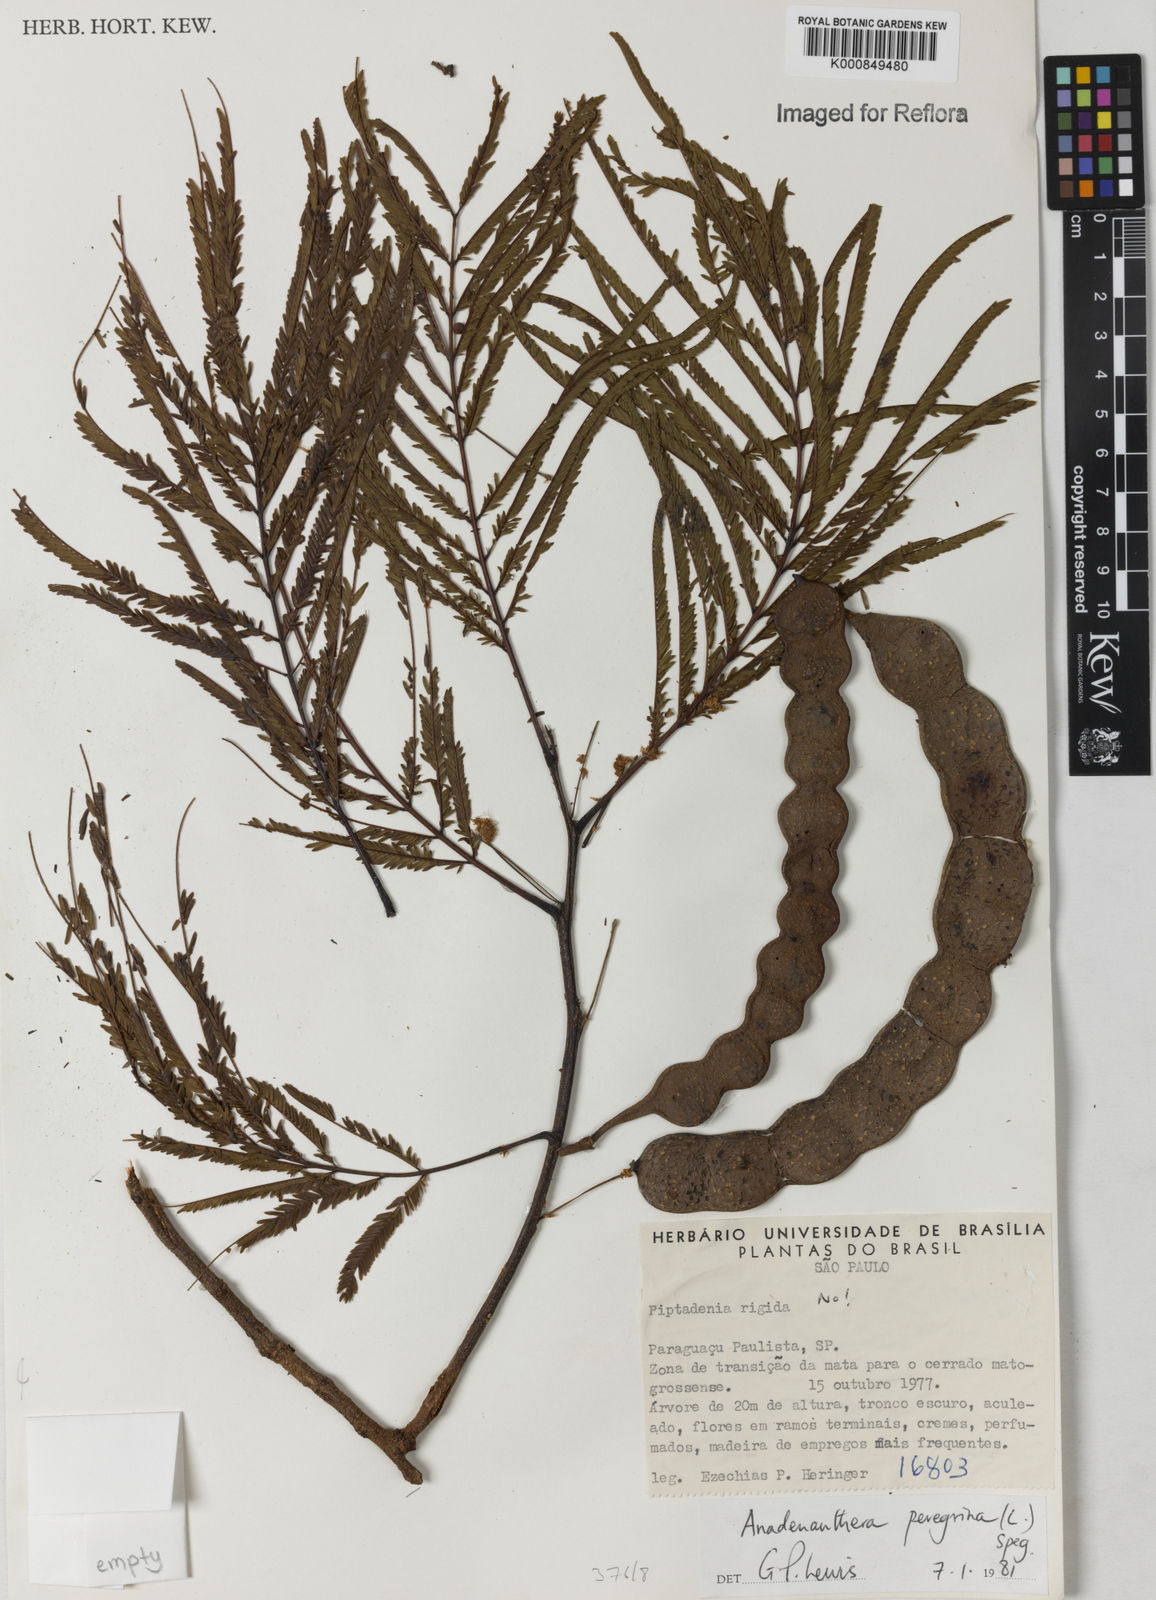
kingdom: Plantae
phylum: Tracheophyta
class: Magnoliopsida
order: Fabales
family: Fabaceae
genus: Anadenanthera
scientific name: Anadenanthera peregrina
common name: Cohoba
